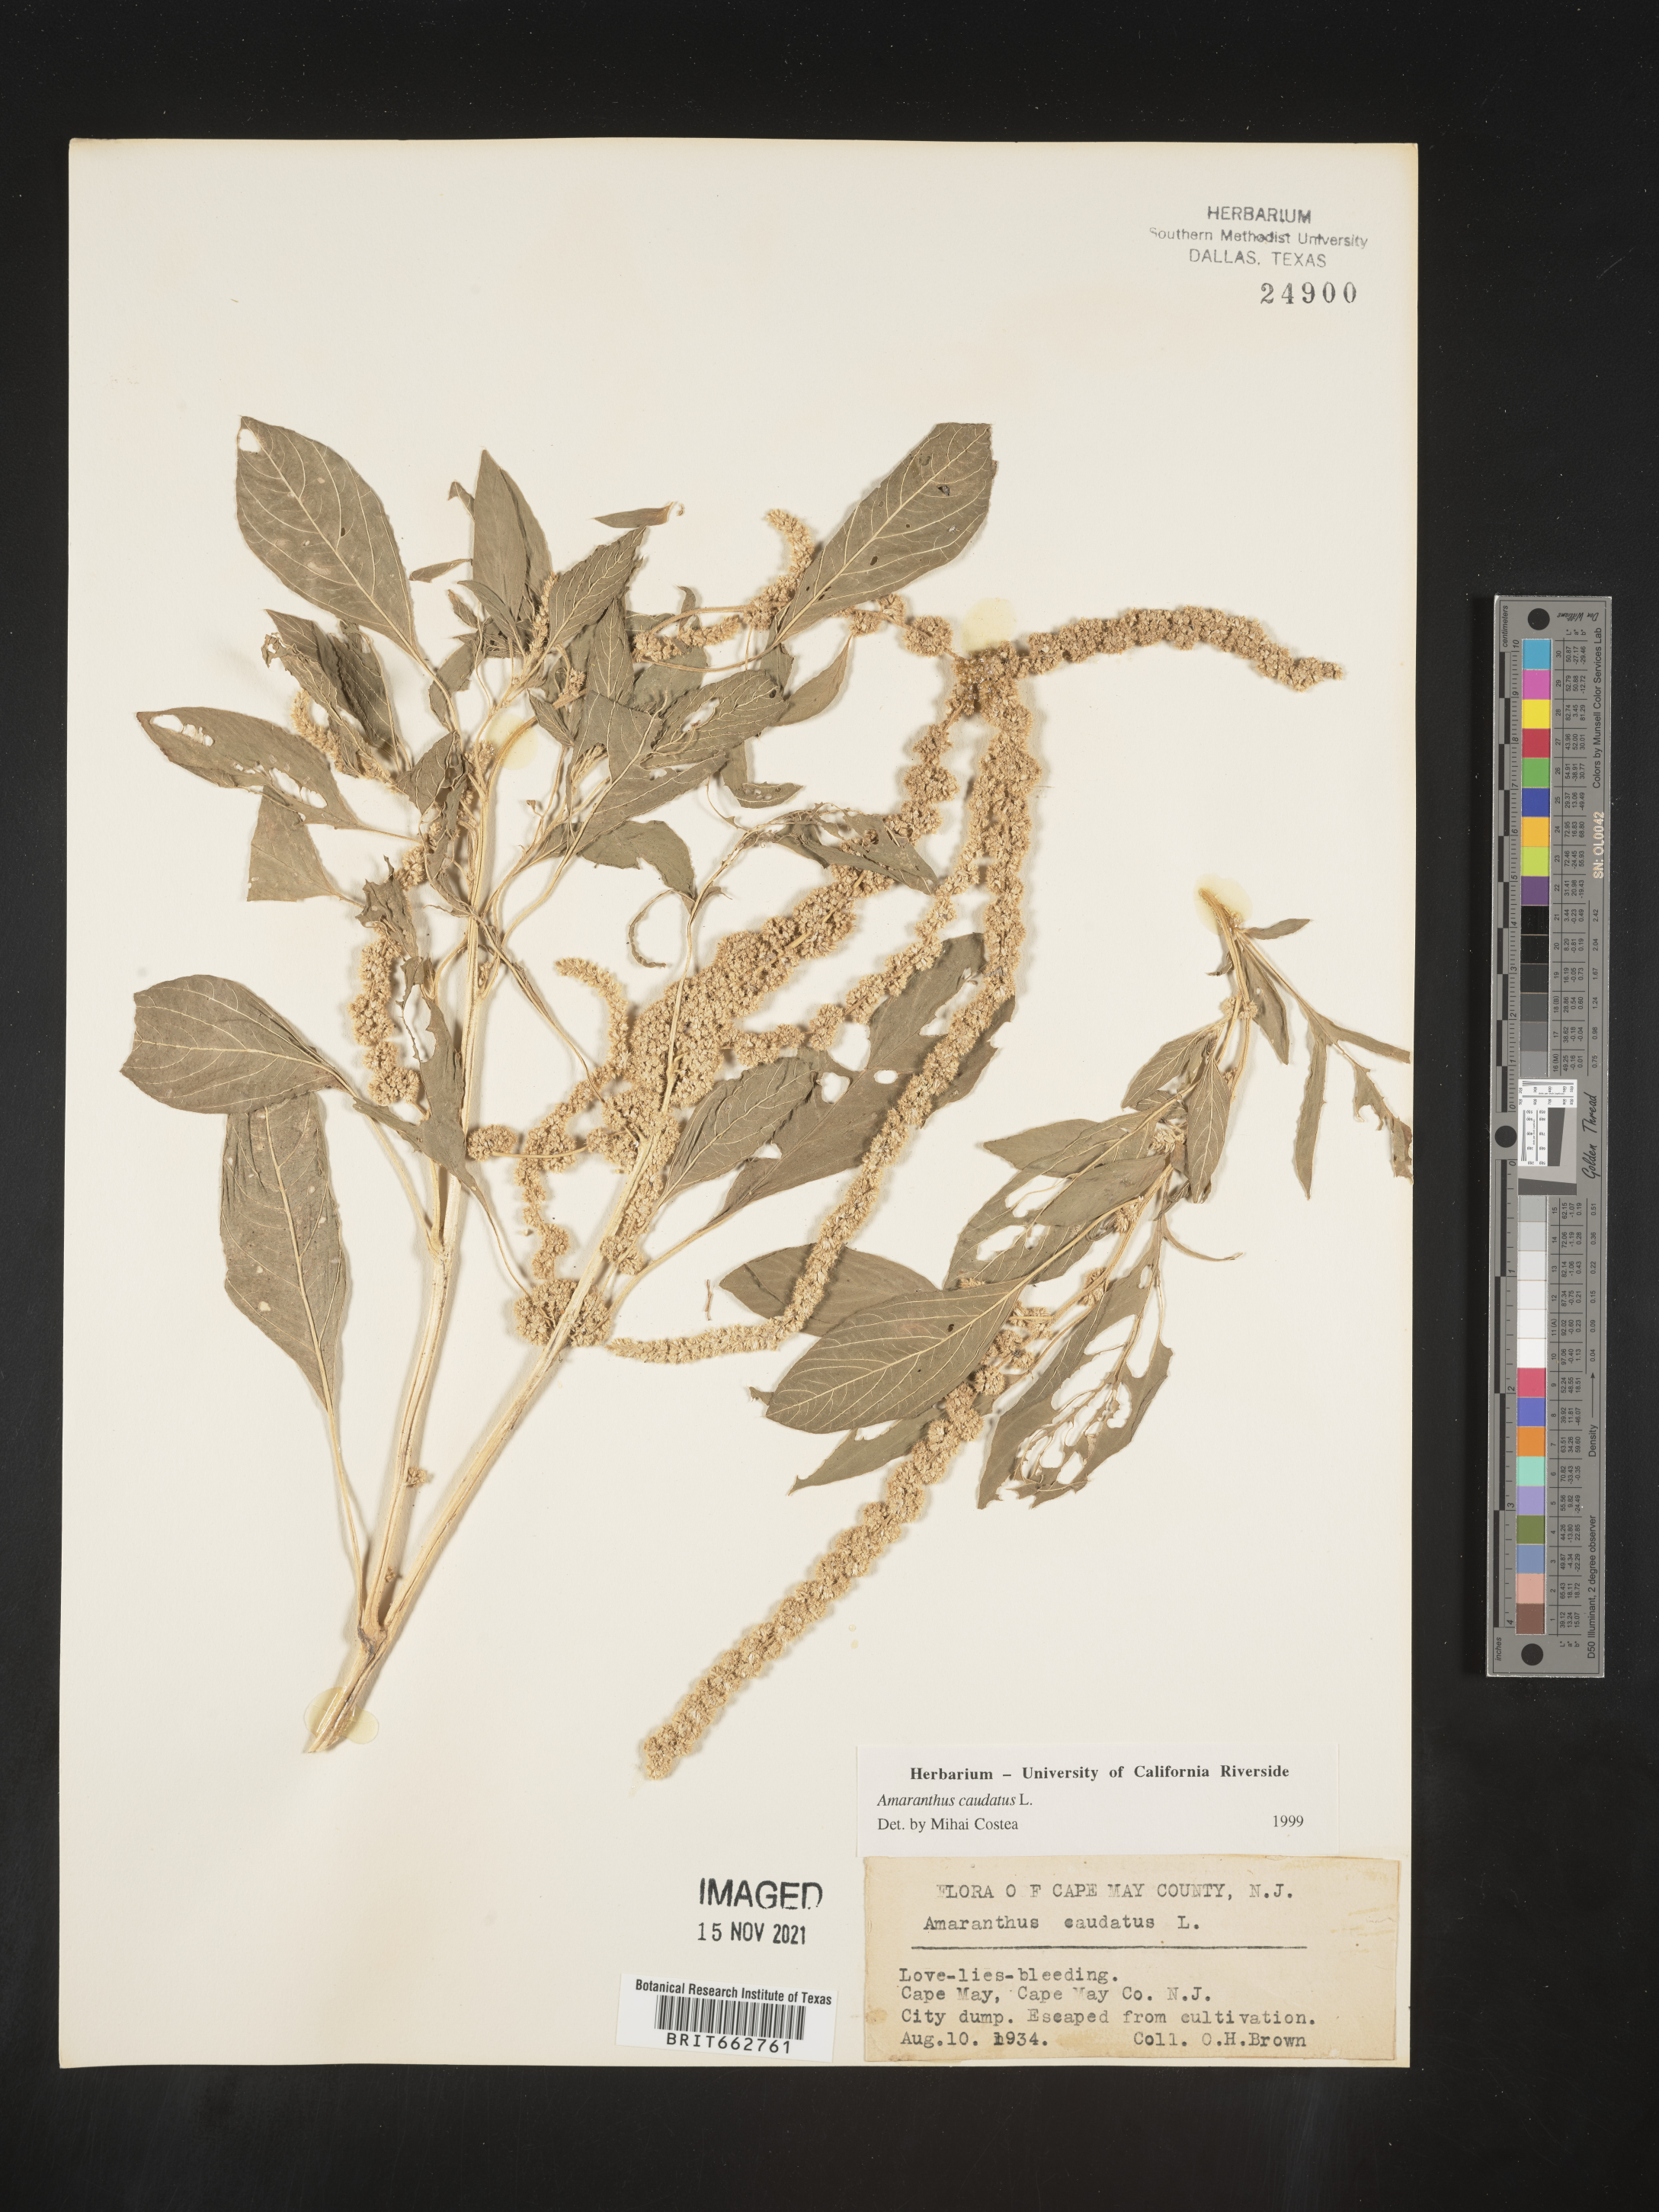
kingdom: Plantae
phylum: Tracheophyta
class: Magnoliopsida
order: Caryophyllales
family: Amaranthaceae
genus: Amaranthus
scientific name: Amaranthus cannabinus
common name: Salt-marsh water-hemp
